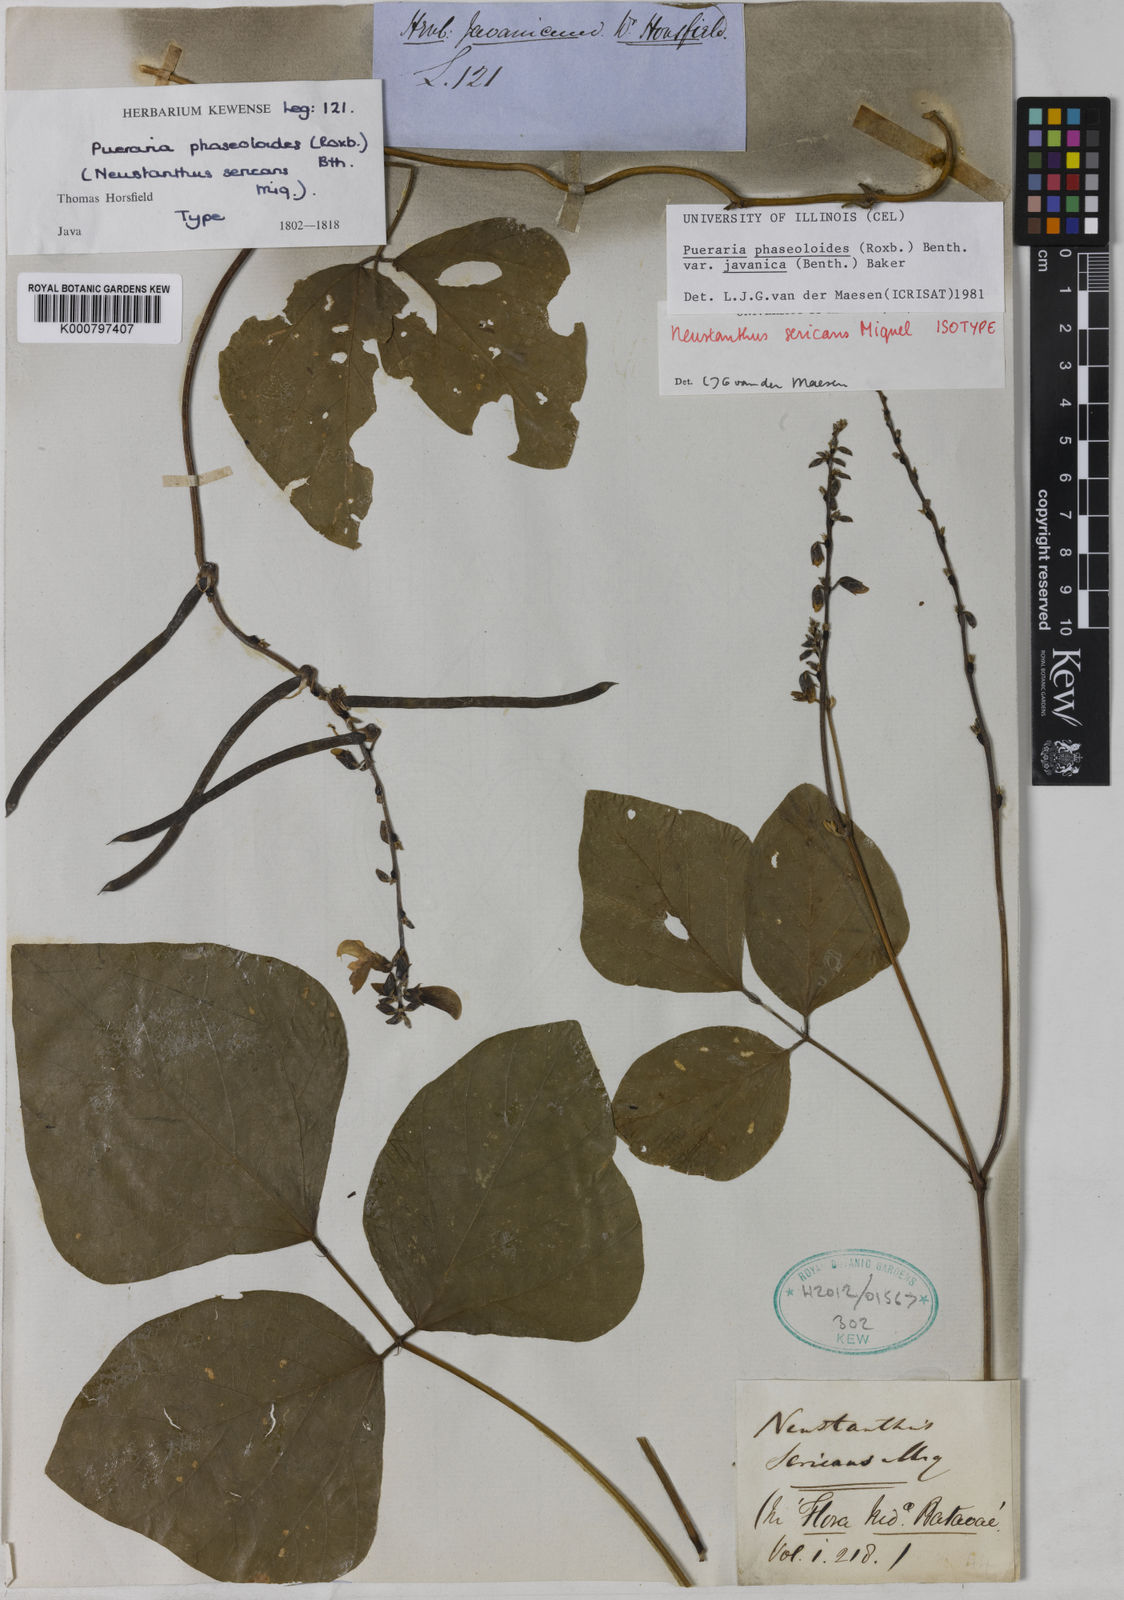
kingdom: Plantae
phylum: Tracheophyta
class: Magnoliopsida
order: Fabales
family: Fabaceae
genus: Neustanthus
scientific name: Neustanthus phaseoloides
